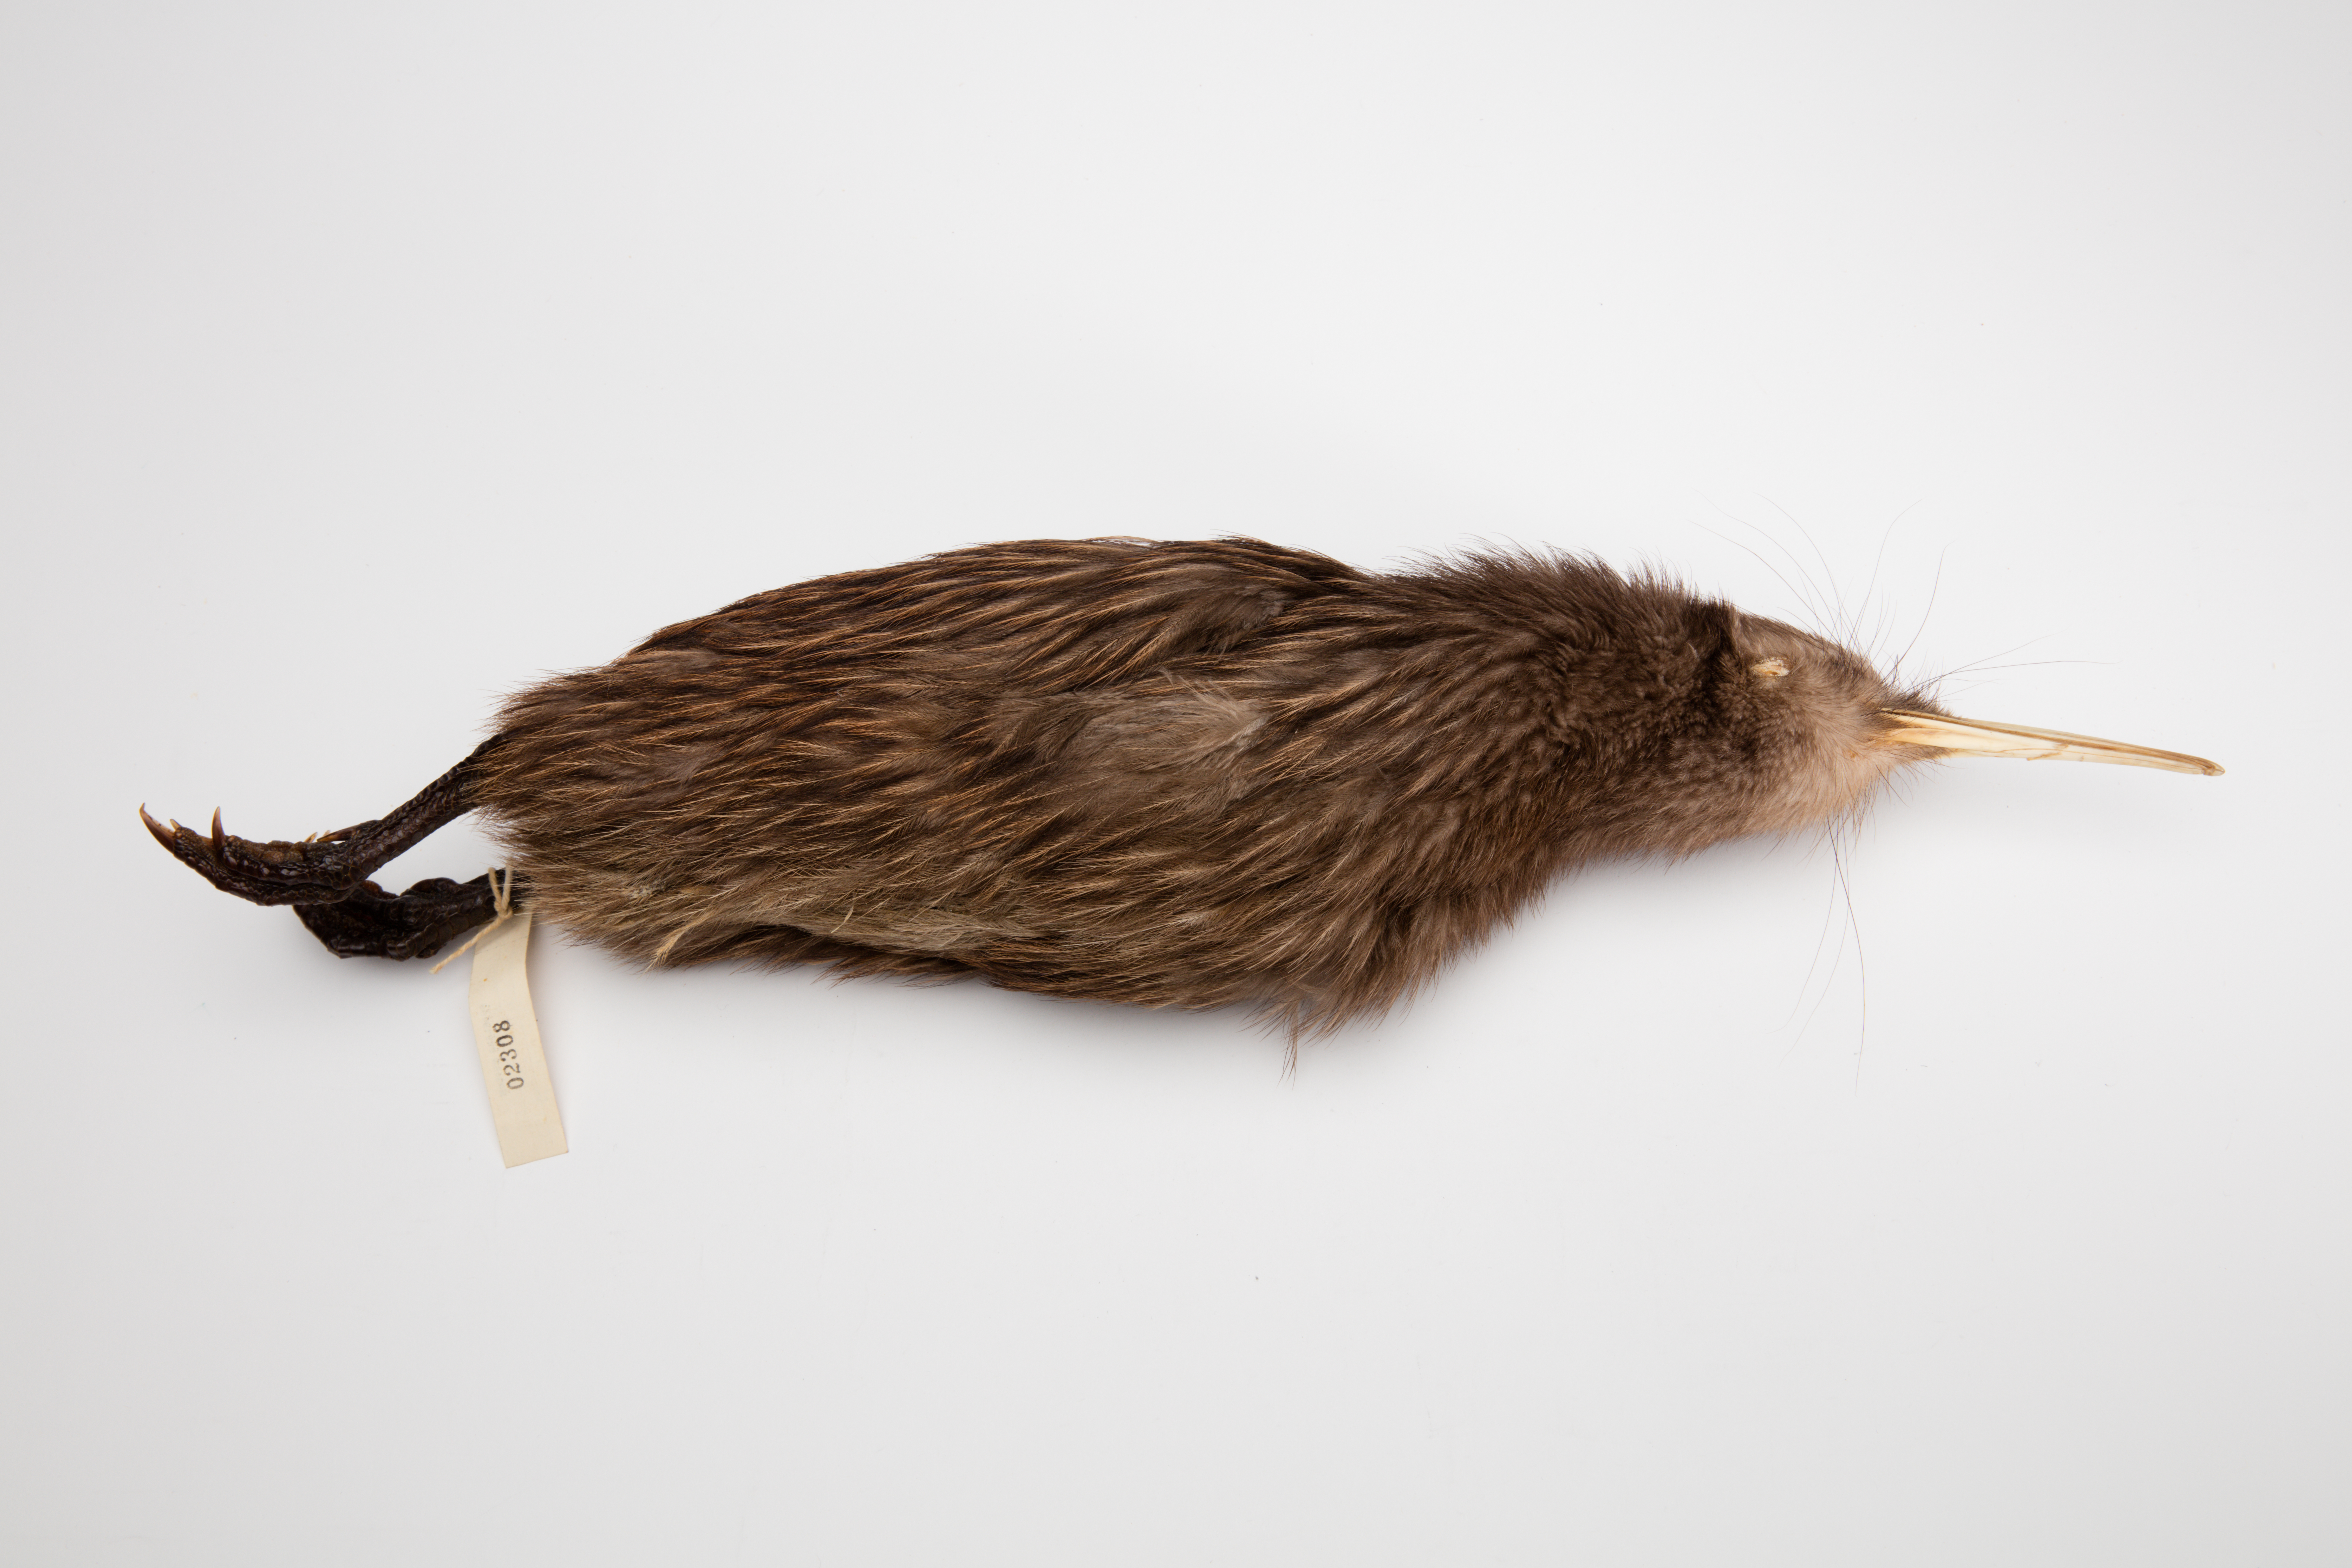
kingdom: Animalia
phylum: Chordata
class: Aves
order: Apterygiformes
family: Apterygidae
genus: Apteryx
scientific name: Apteryx mantelli
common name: North island brown kiwi
